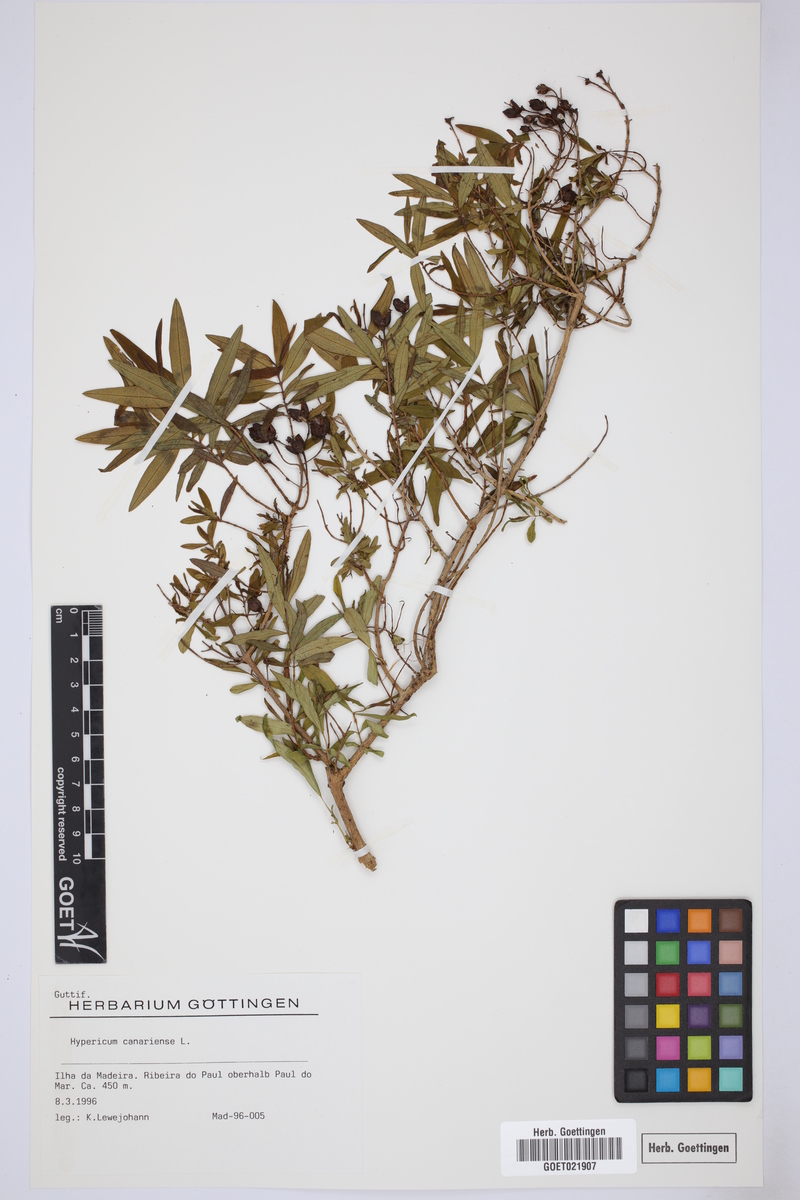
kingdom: Plantae
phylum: Tracheophyta
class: Magnoliopsida
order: Malpighiales
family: Hypericaceae
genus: Hypericum
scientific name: Hypericum canariense
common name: Canary island st. johnswort
